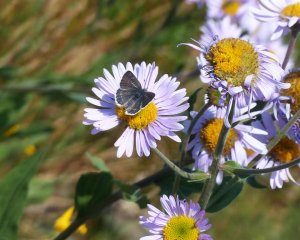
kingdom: Animalia
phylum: Arthropoda
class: Insecta
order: Lepidoptera
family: Lycaenidae
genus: Agriades
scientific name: Agriades glandon
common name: Arctic Blue
